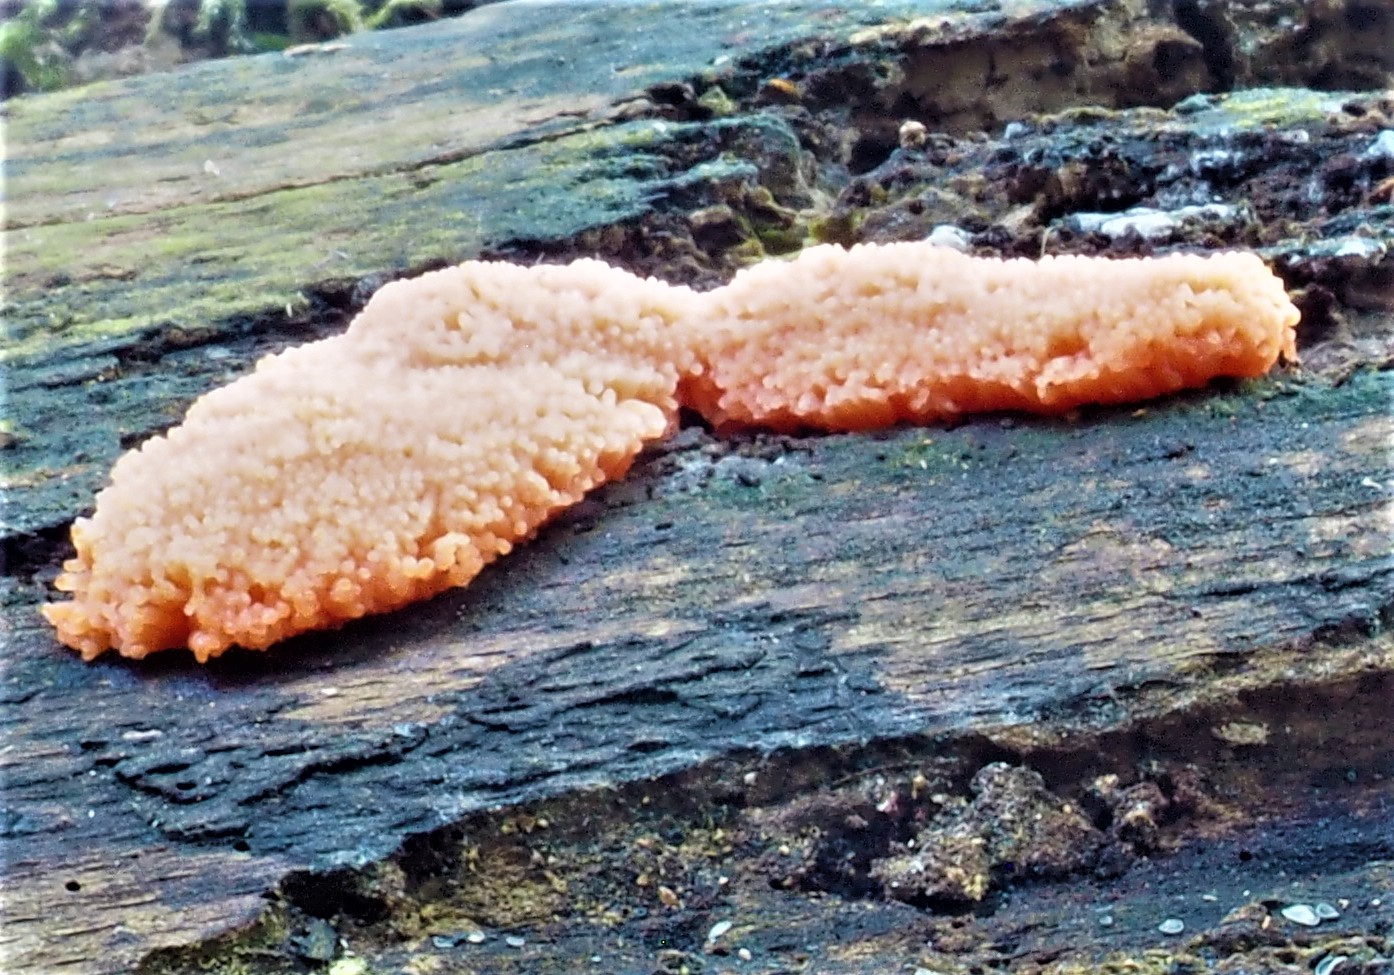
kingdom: Protozoa
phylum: Mycetozoa
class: Myxomycetes
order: Cribrariales
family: Tubiferaceae
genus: Tubifera
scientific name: Tubifera ferruginosa
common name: kanel-støvrør
